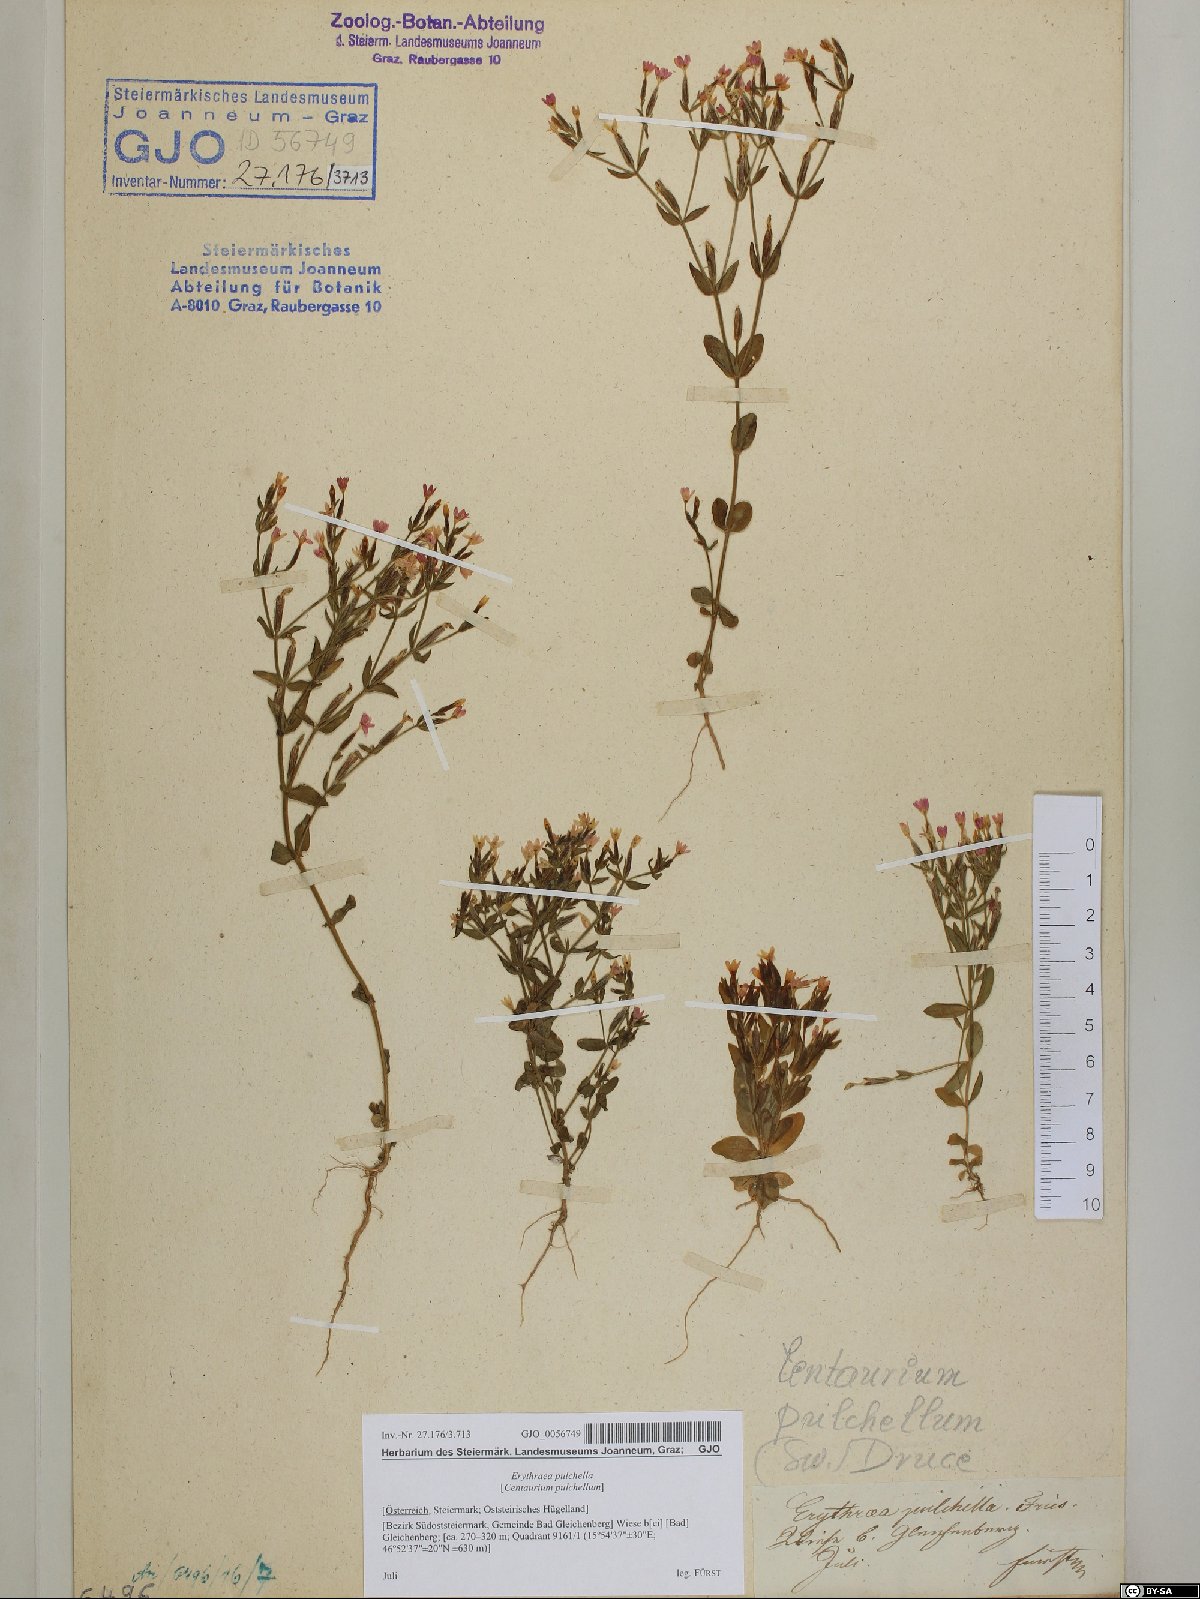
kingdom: Plantae
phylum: Tracheophyta
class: Magnoliopsida
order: Gentianales
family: Gentianaceae
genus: Centaurium
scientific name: Centaurium pulchellum
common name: Lesser centaury
